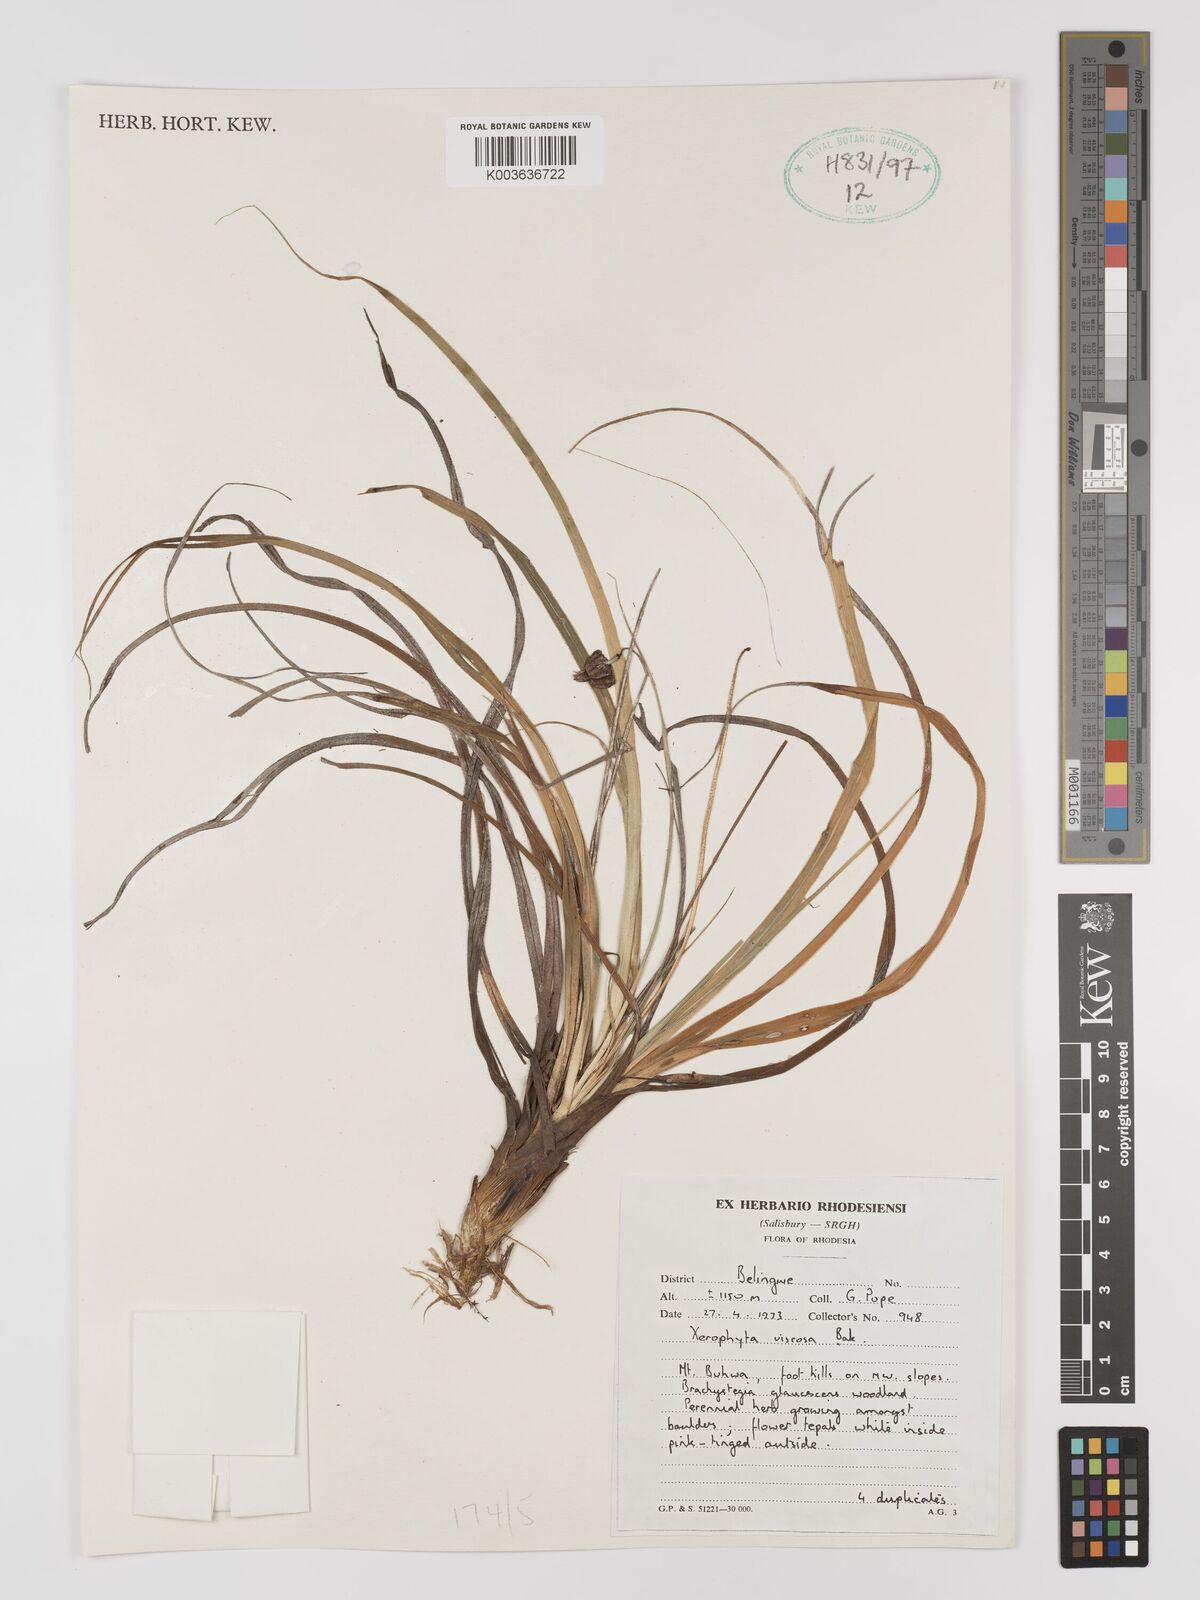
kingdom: Plantae
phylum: Tracheophyta
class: Liliopsida
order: Pandanales
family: Velloziaceae
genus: Xerophyta
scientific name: Xerophyta viscosa
